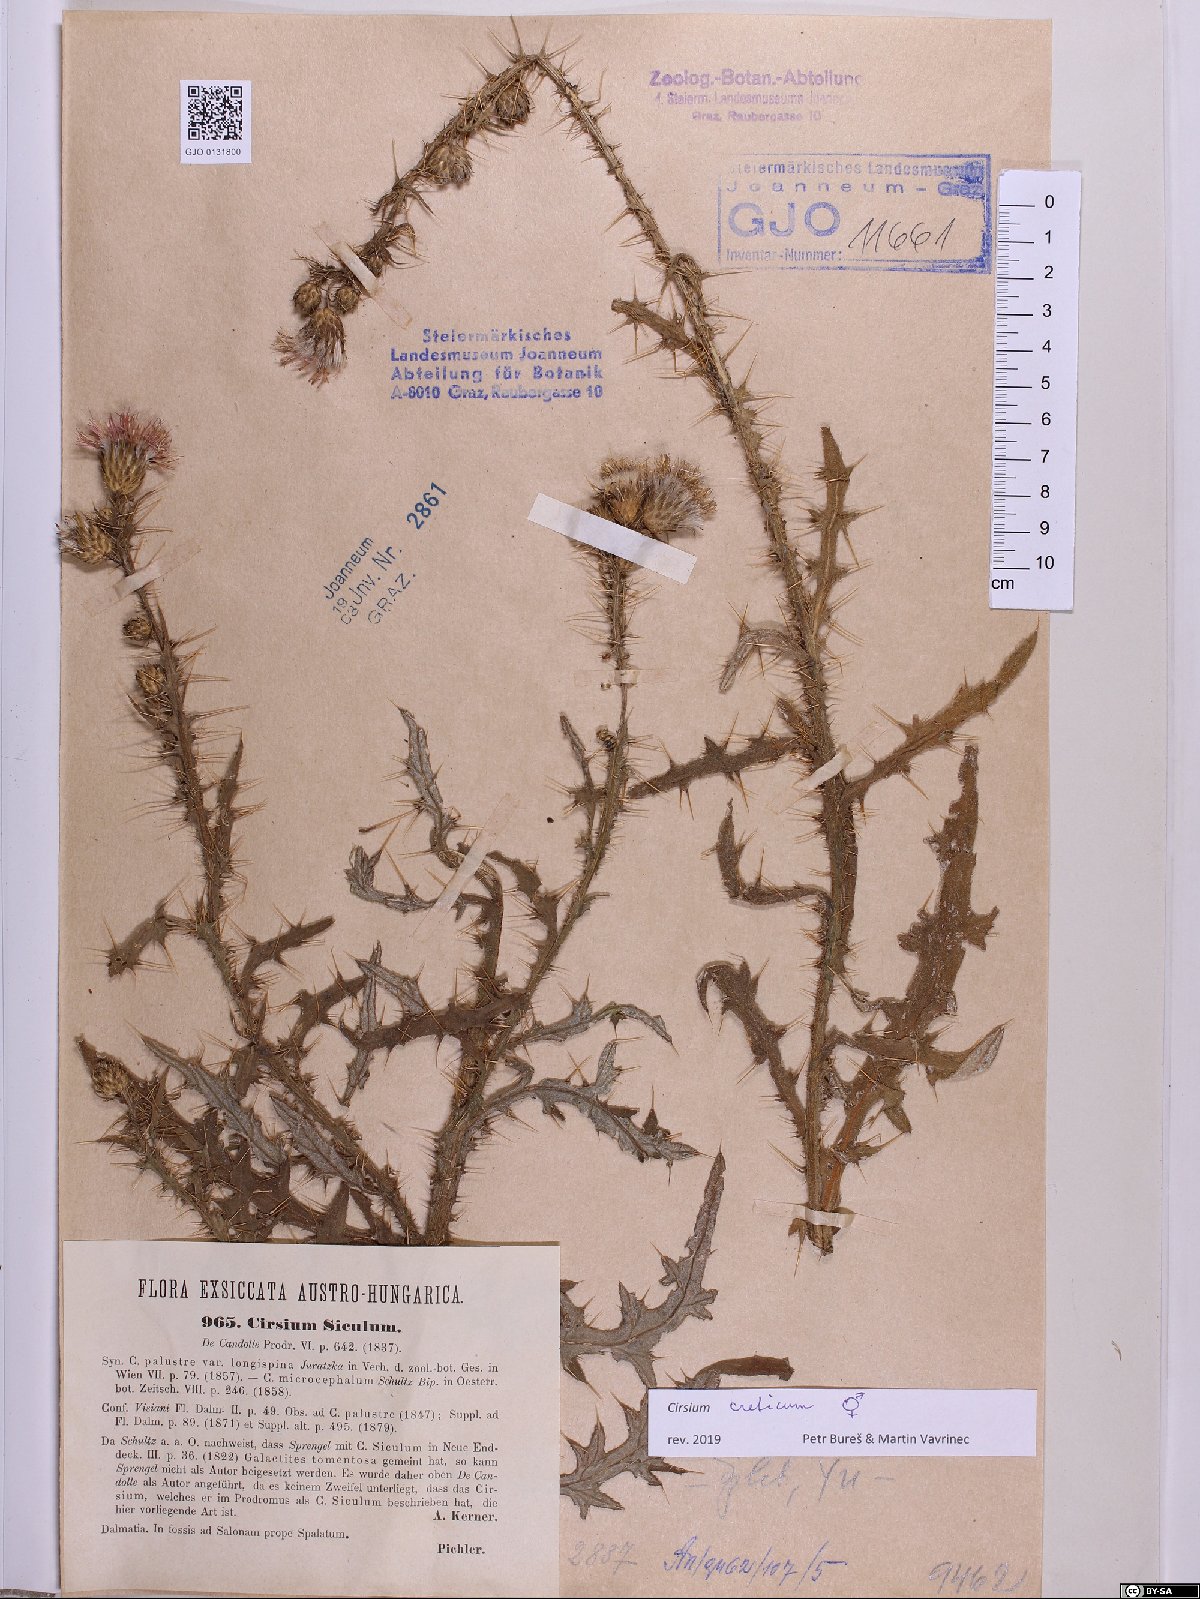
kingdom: Plantae
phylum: Tracheophyta
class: Magnoliopsida
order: Asterales
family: Asteraceae
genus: Cirsium
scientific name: Cirsium creticum
